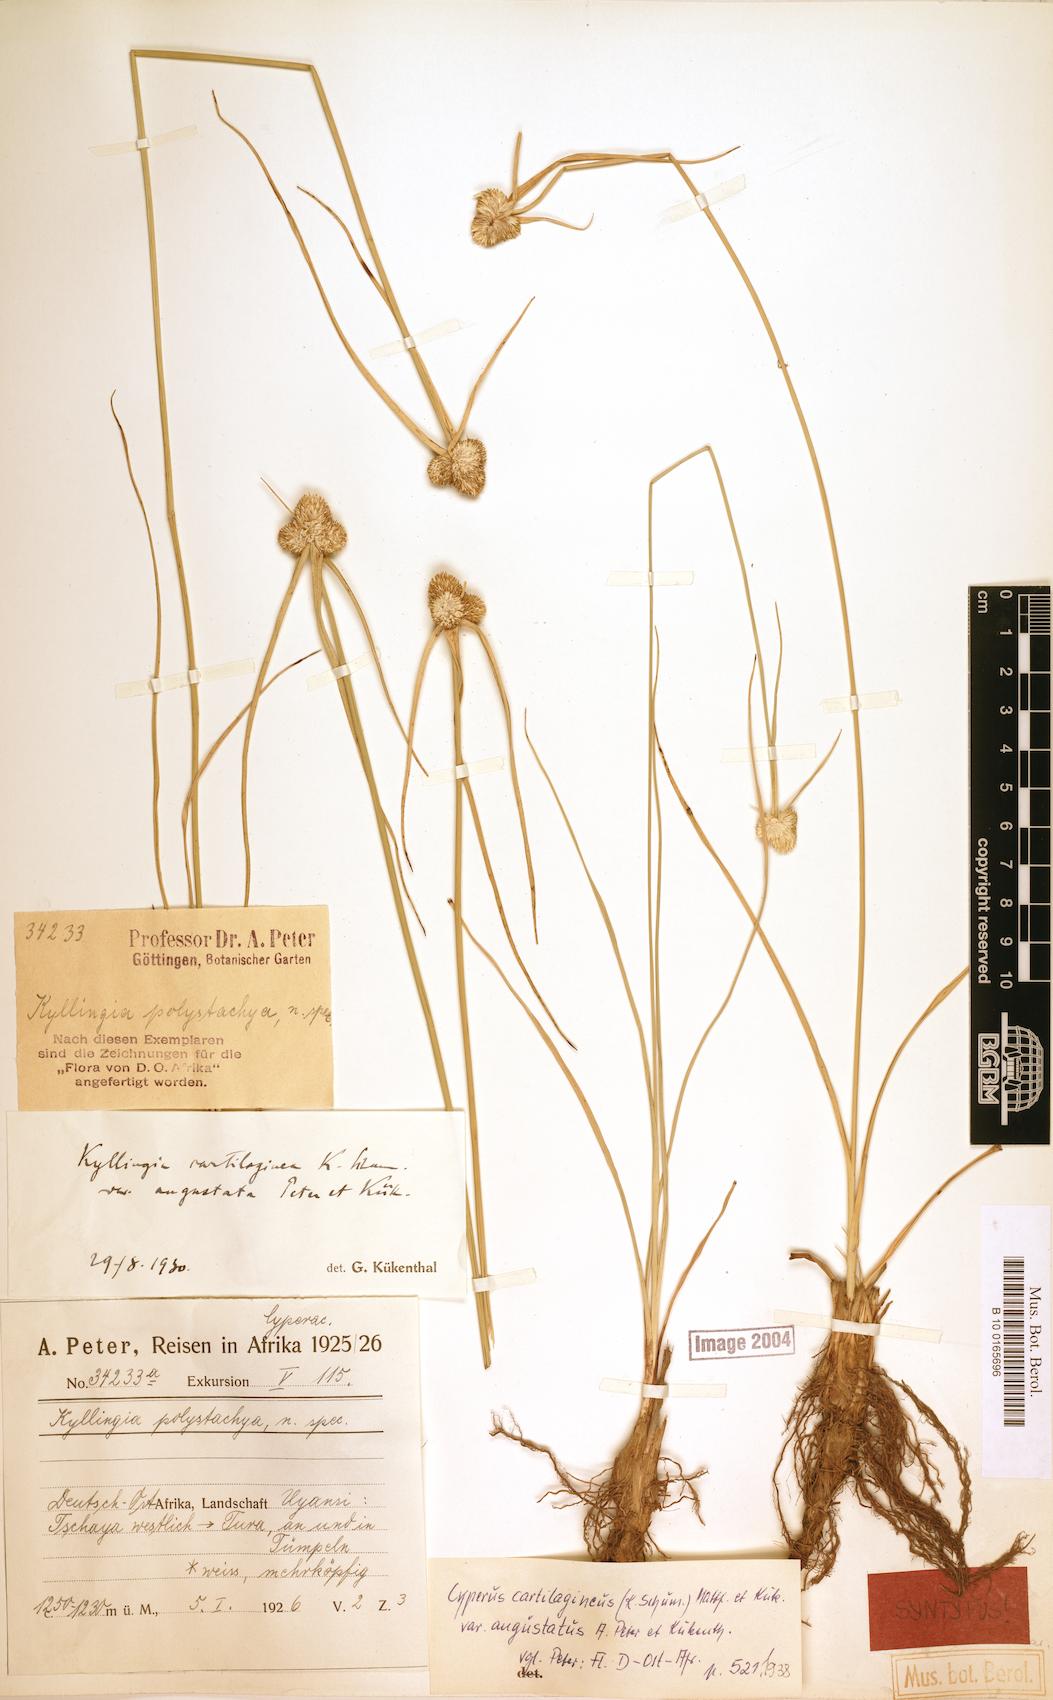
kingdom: Plantae
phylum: Tracheophyta
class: Liliopsida
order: Poales
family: Cyperaceae
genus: Cyperus
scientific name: Cyperus comosipes
